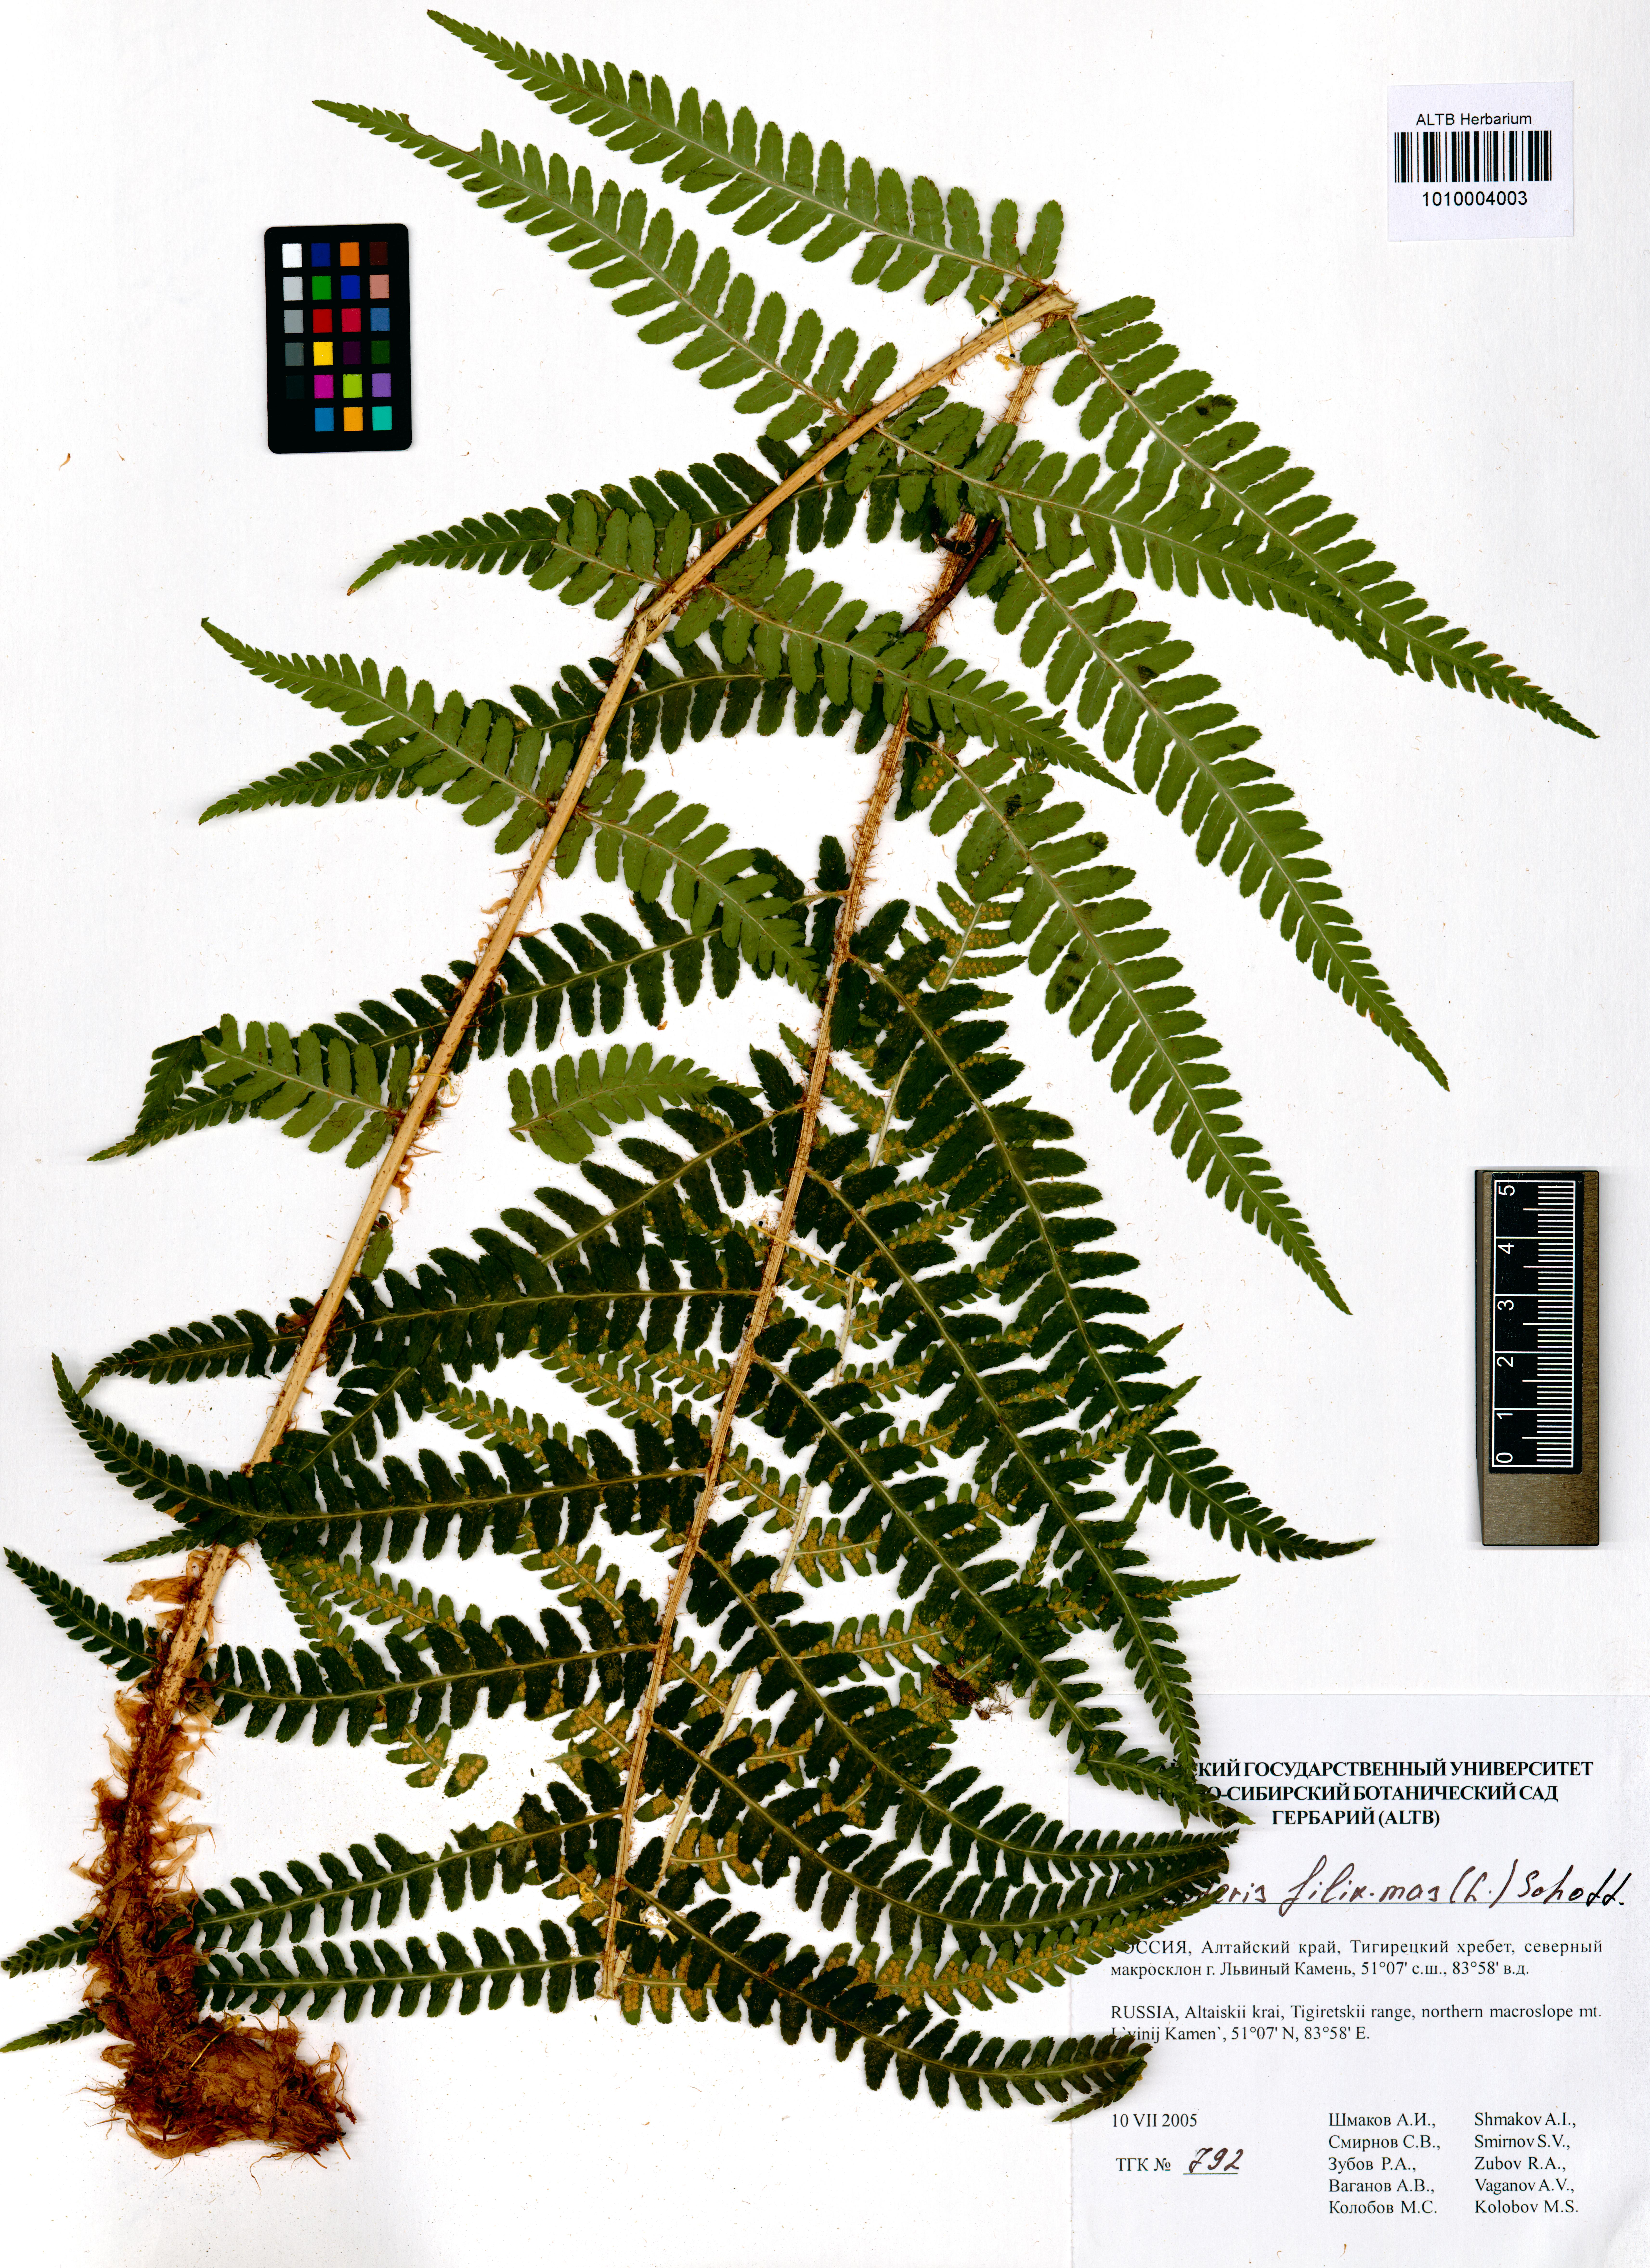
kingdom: Plantae
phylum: Tracheophyta
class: Polypodiopsida
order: Polypodiales
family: Dryopteridaceae
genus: Dryopteris
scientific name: Dryopteris filix-mas
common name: Male fern
